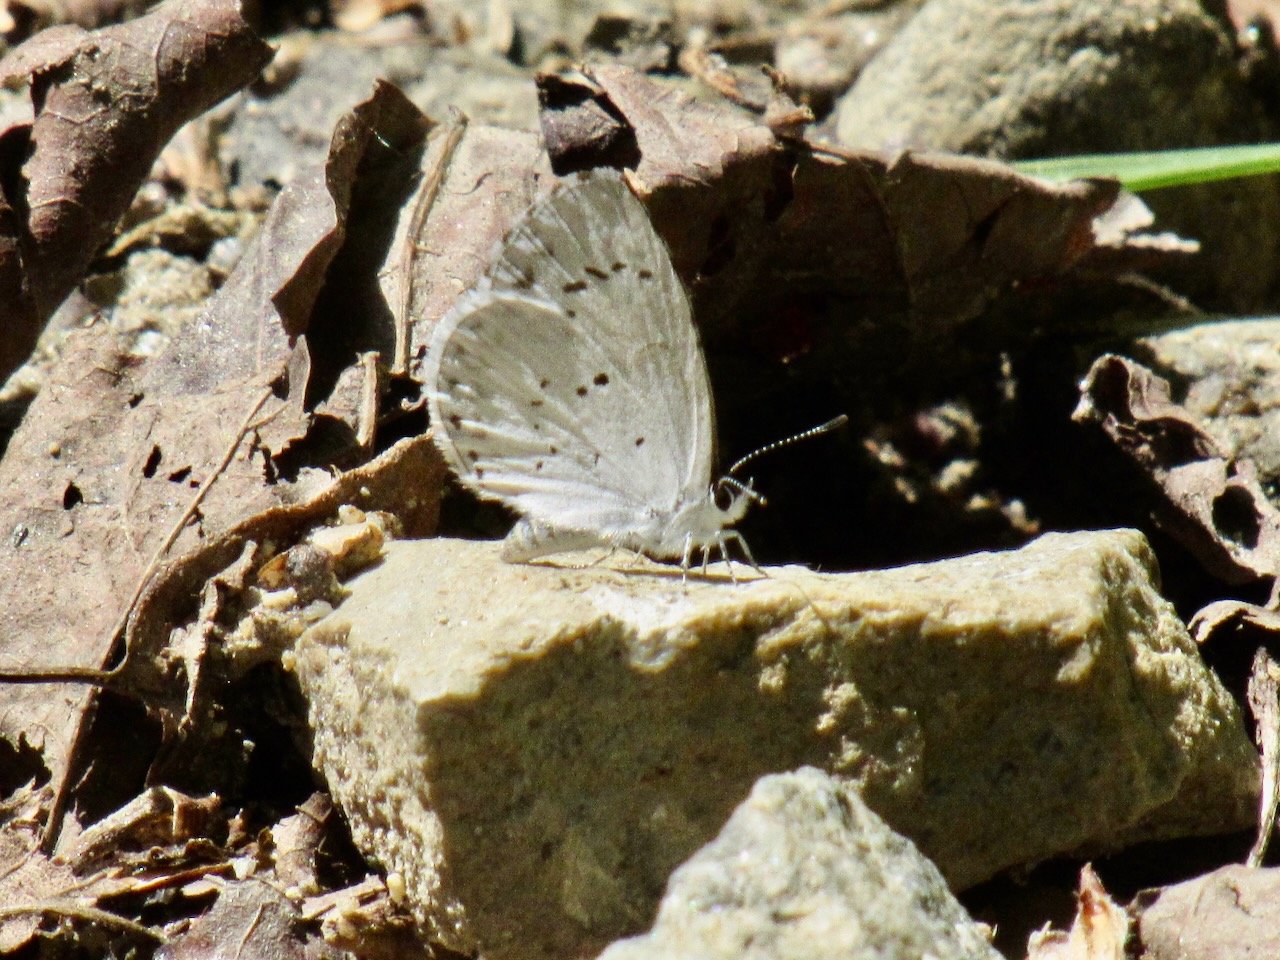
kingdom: Animalia
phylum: Arthropoda
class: Insecta
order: Lepidoptera
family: Lycaenidae
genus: Celastrina
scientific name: Celastrina
